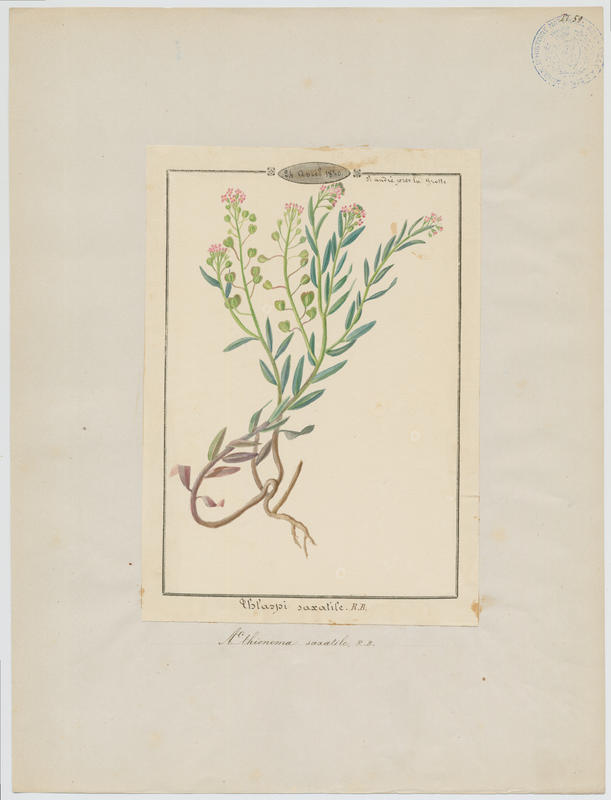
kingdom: Plantae
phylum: Tracheophyta
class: Magnoliopsida
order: Brassicales
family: Brassicaceae
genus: Aethionema
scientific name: Aethionema saxatile
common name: Burnt candytuft
